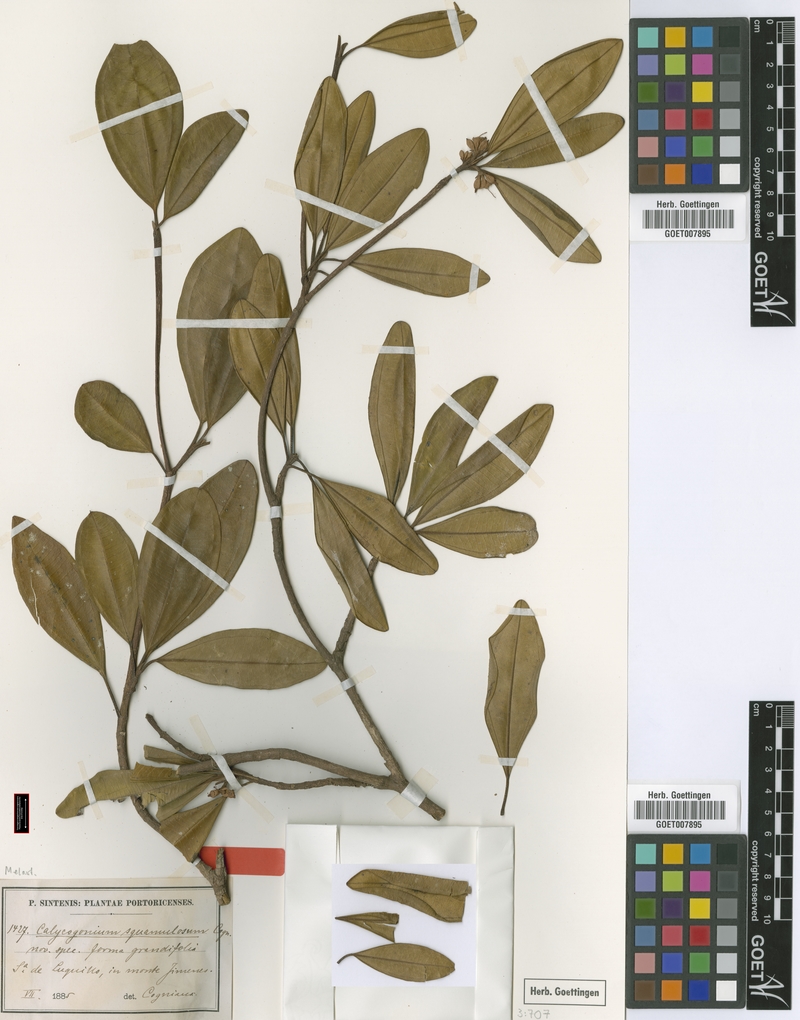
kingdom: Plantae
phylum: Tracheophyta
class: Magnoliopsida
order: Myrtales
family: Melastomataceae
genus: Henriettea
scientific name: Henriettea squamulosa
